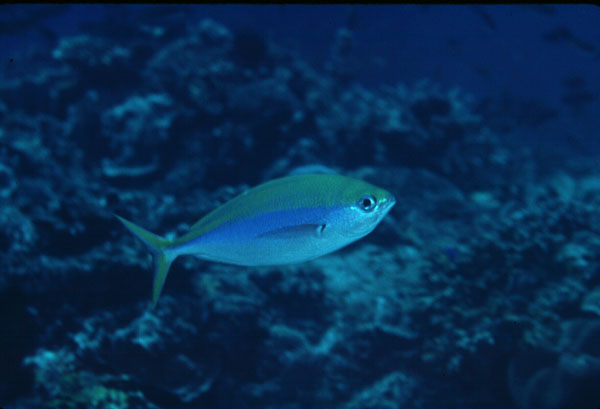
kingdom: Animalia
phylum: Chordata
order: Perciformes
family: Caesionidae
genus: Caesio
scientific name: Caesio xanthonota
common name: Yellowback fusilier
